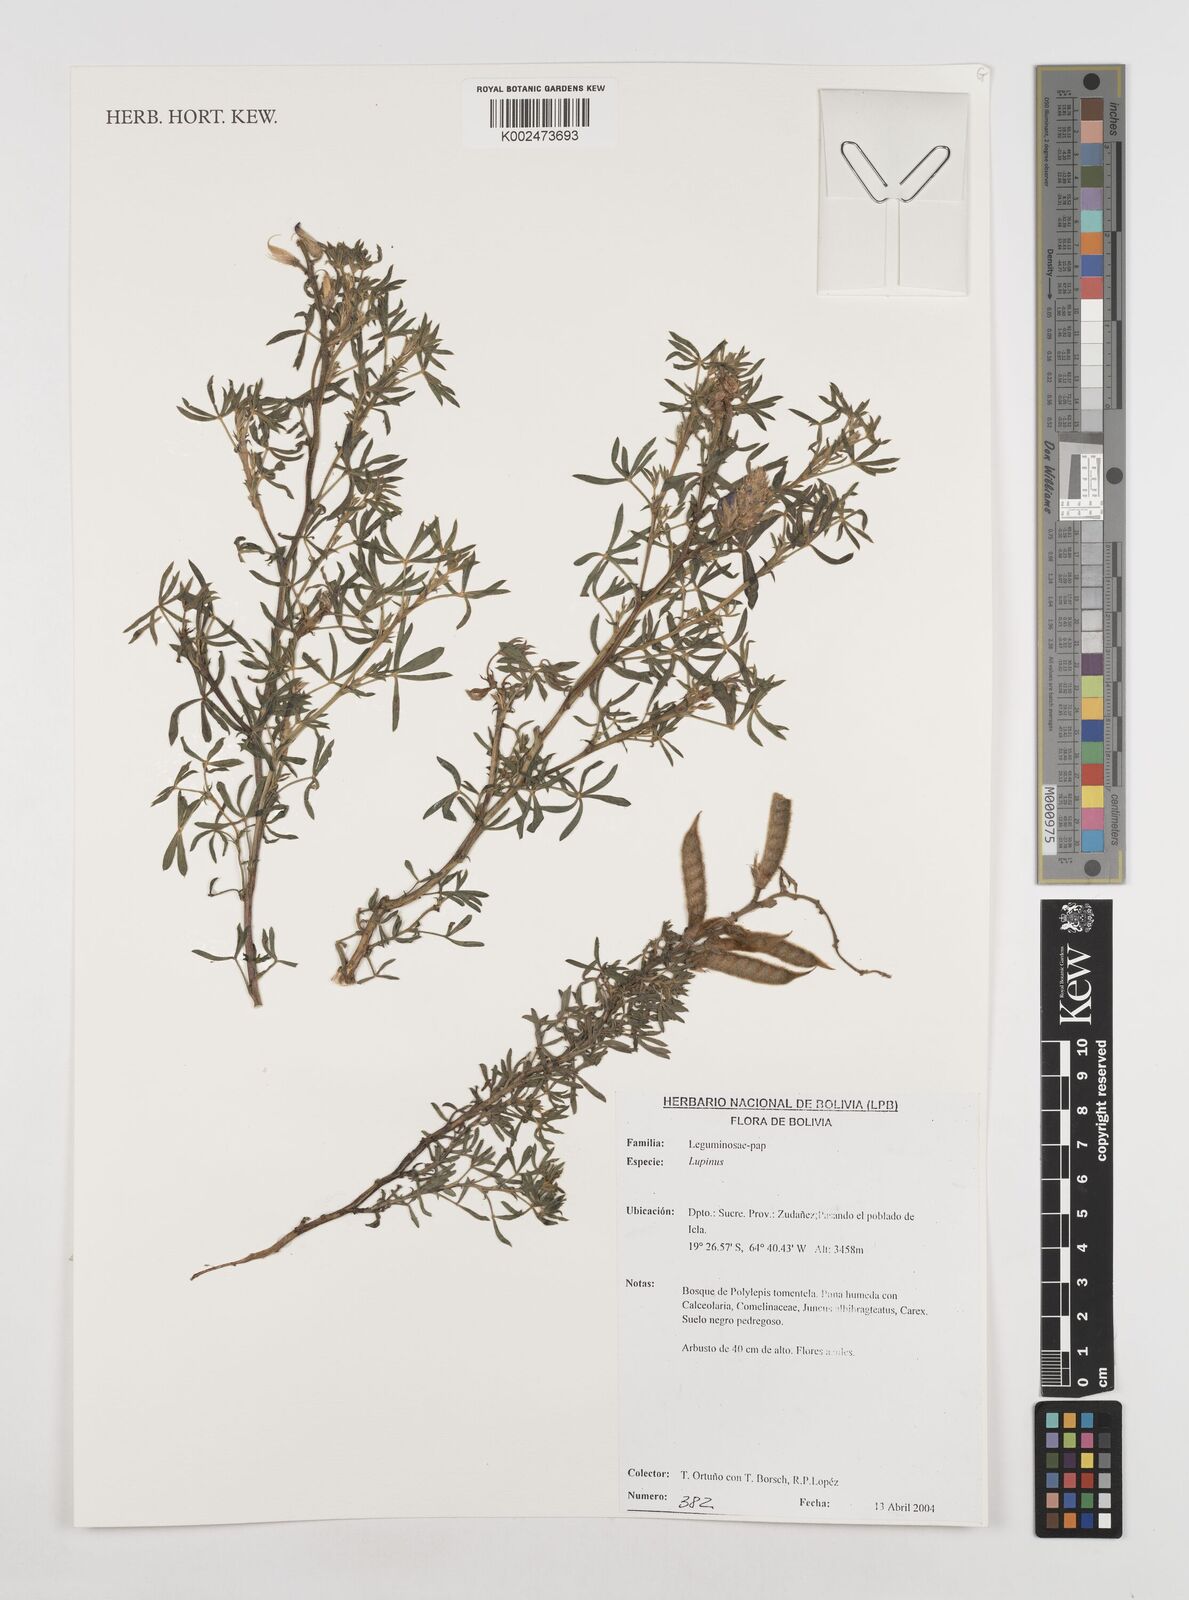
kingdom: Plantae
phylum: Tracheophyta
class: Magnoliopsida
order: Fabales
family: Fabaceae
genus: Lupinus
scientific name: Lupinus
